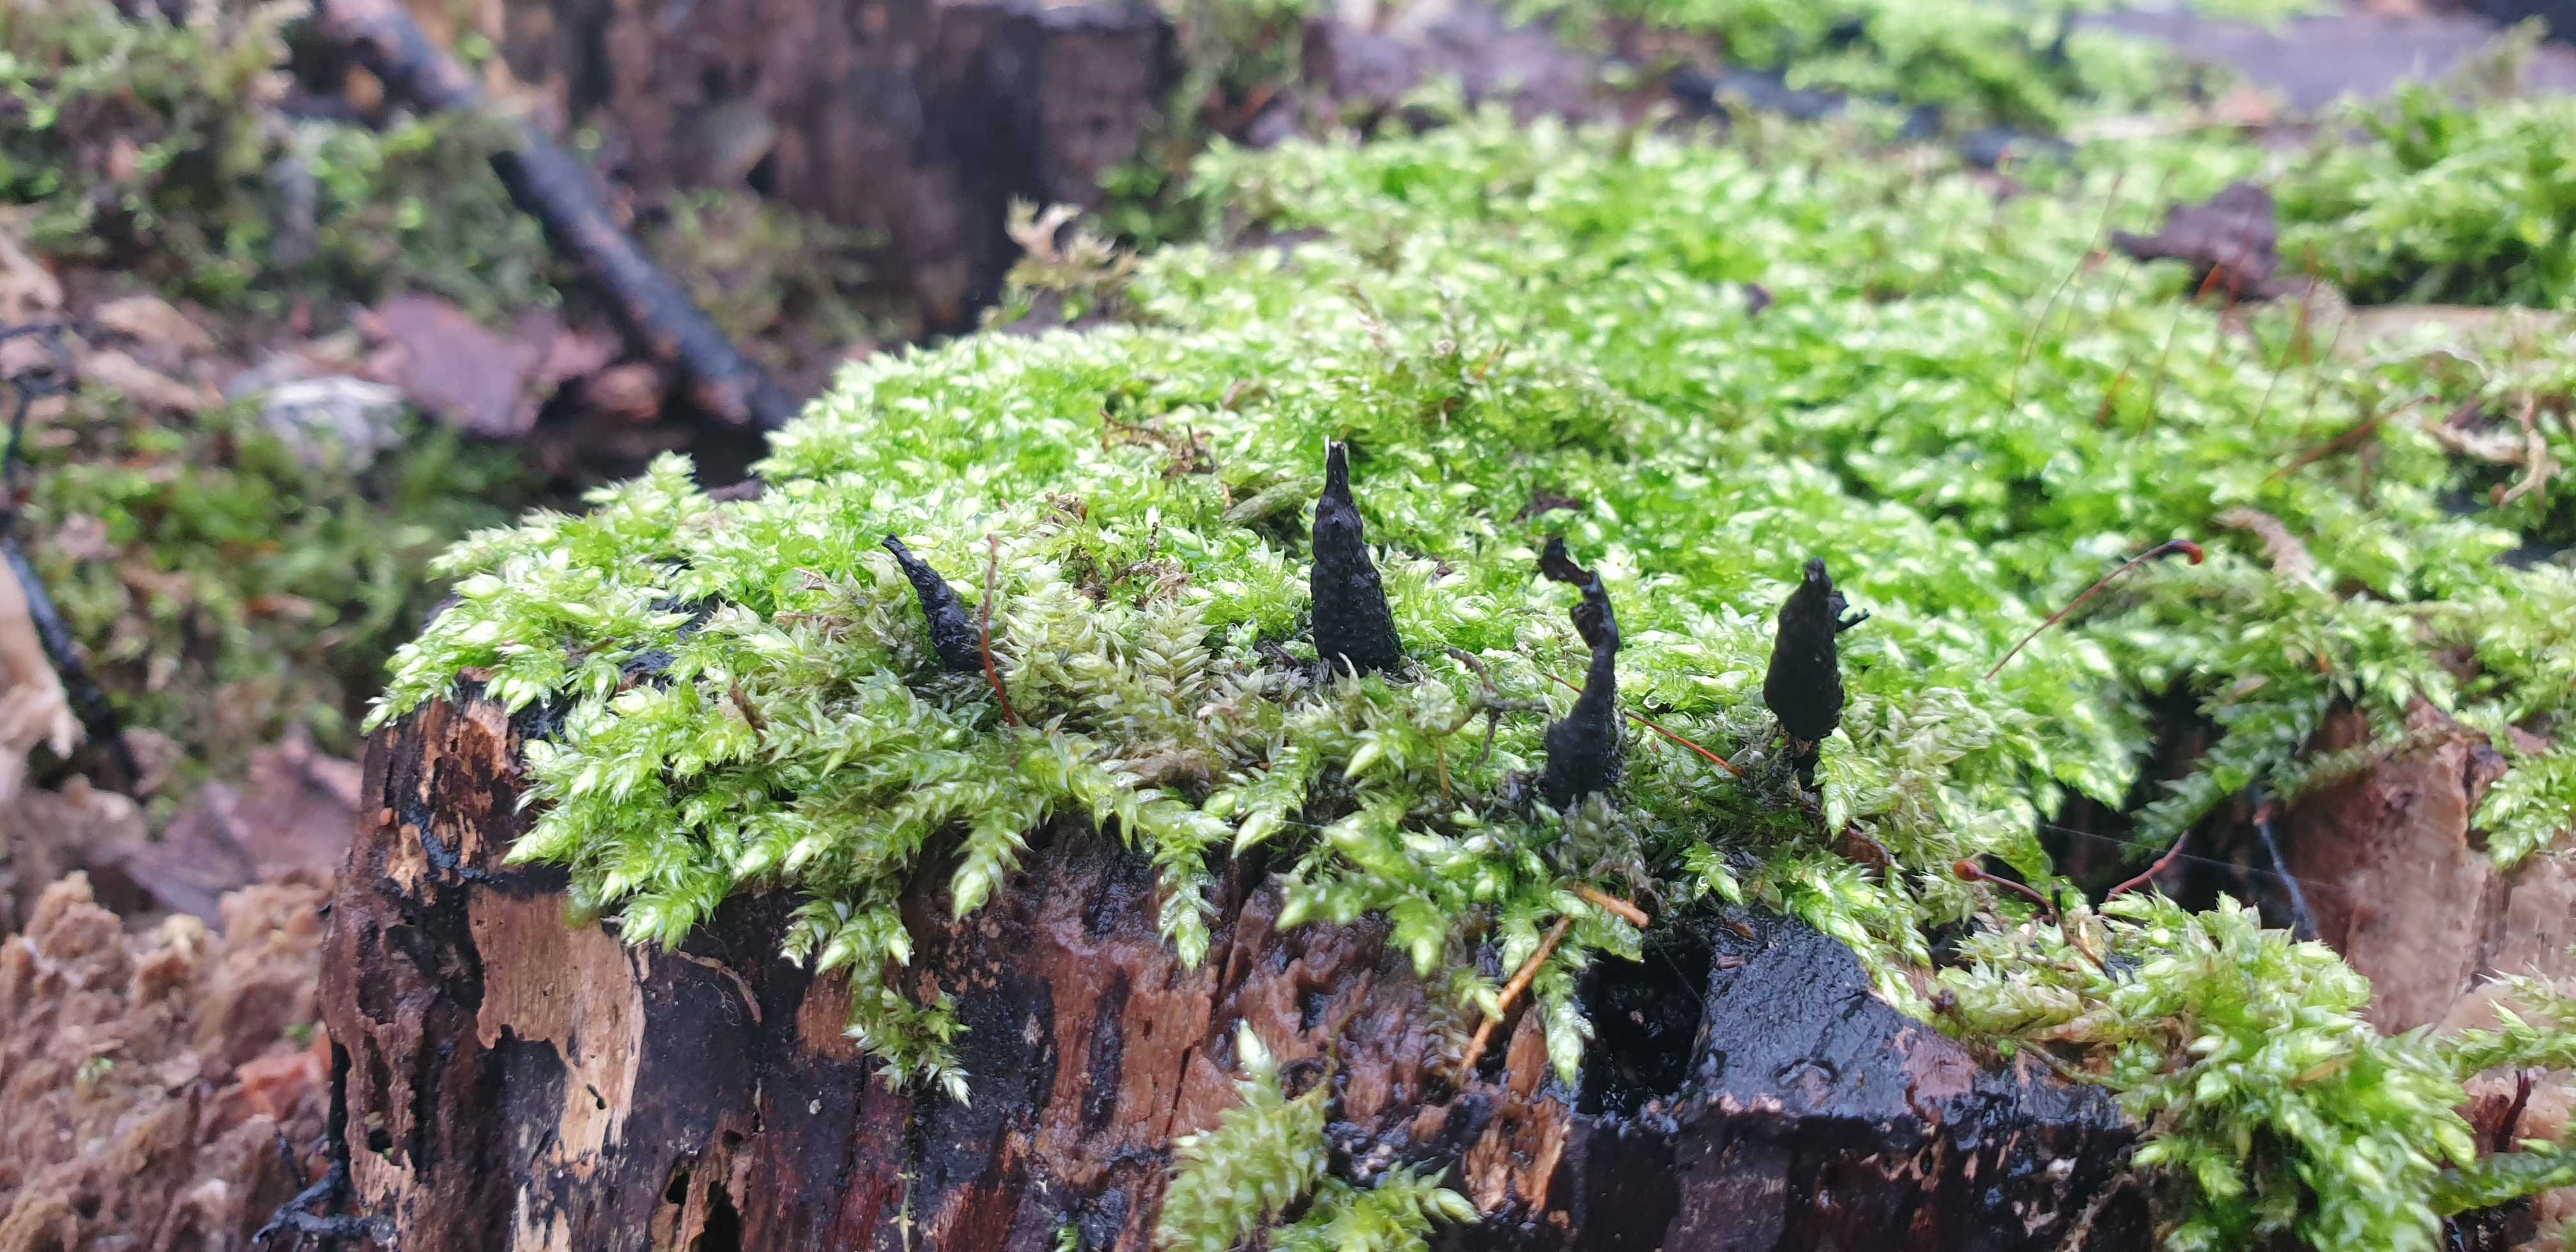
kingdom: Fungi
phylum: Ascomycota
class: Sordariomycetes
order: Xylariales
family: Xylariaceae
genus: Xylaria
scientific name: Xylaria hypoxylon
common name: grenet stødsvamp
